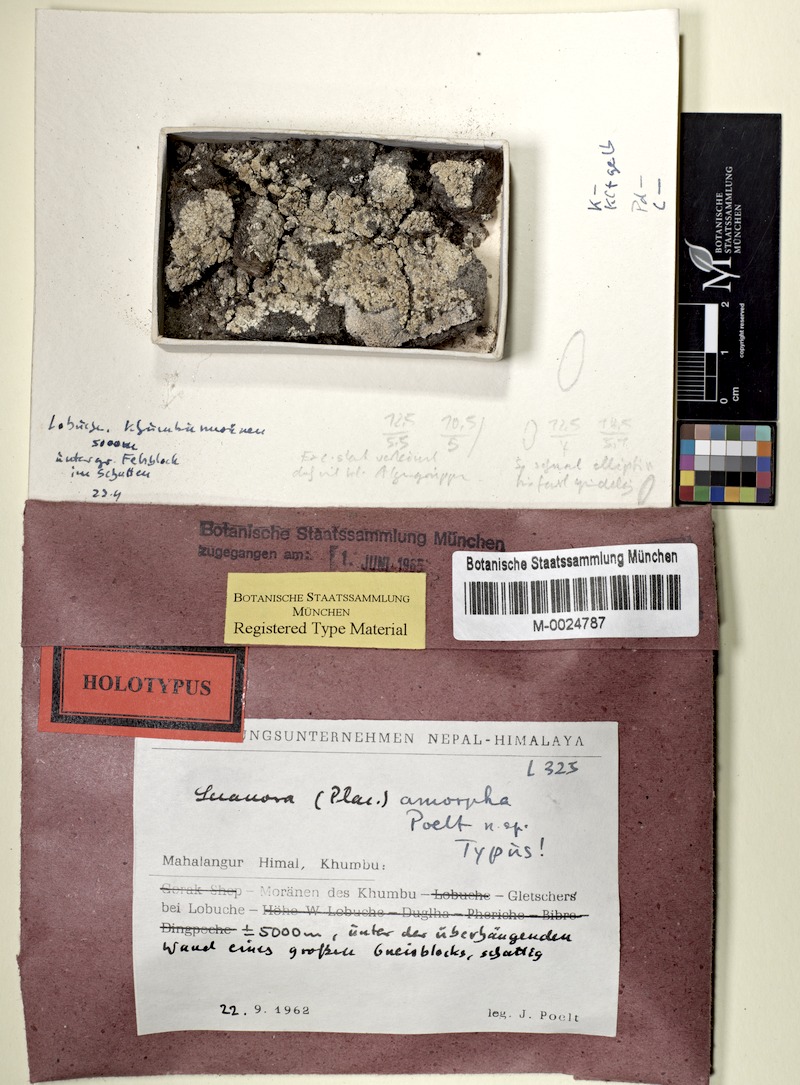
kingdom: Fungi
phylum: Ascomycota
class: Lecanoromycetes
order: Lecanorales
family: Lecanoraceae
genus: Lecanora
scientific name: Lecanora amorpha
